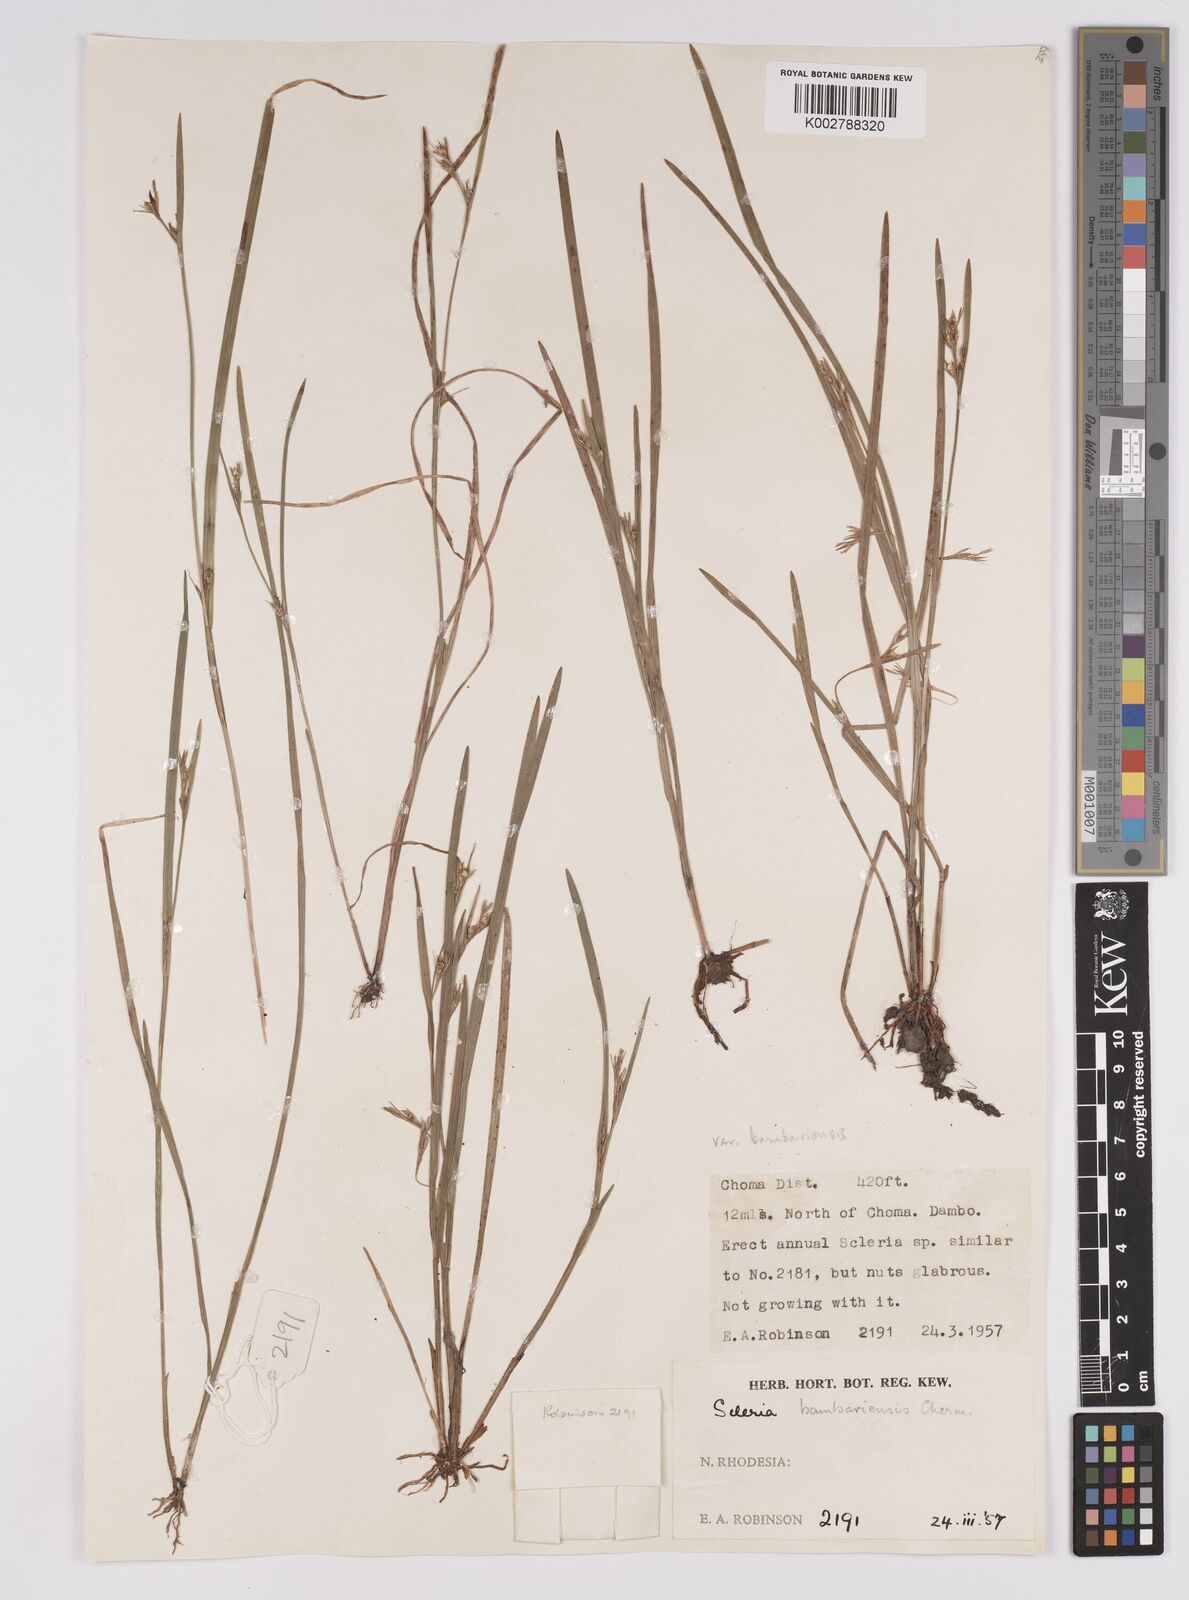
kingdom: Plantae
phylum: Tracheophyta
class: Liliopsida
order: Poales
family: Cyperaceae
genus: Scleria
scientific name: Scleria bambariensis
